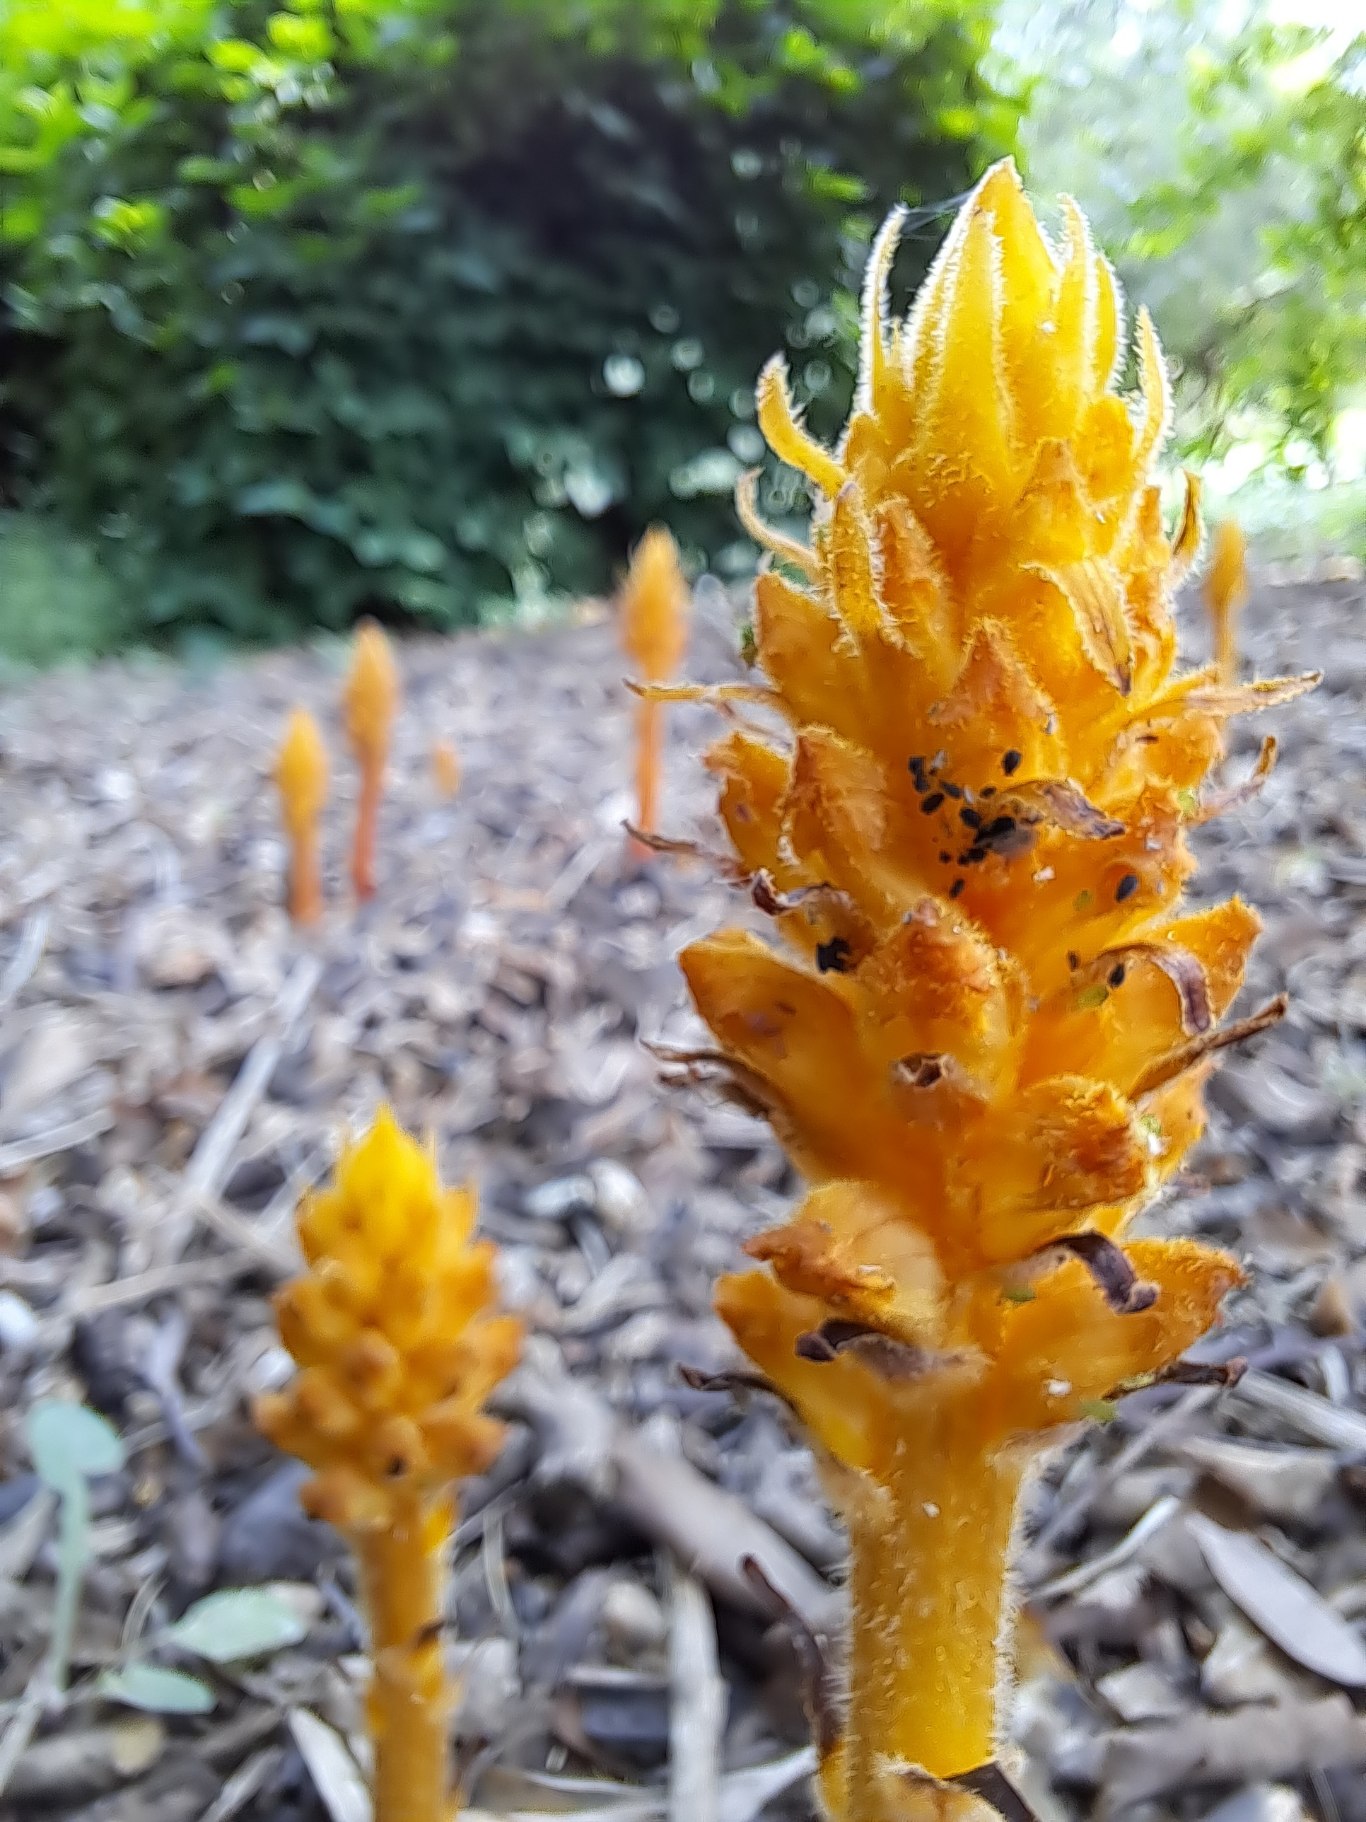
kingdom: Plantae
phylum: Tracheophyta
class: Magnoliopsida
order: Lamiales
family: Orobanchaceae
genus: Orobanche
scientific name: Orobanche lucorum
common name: Berberis-gyvelkvæler
